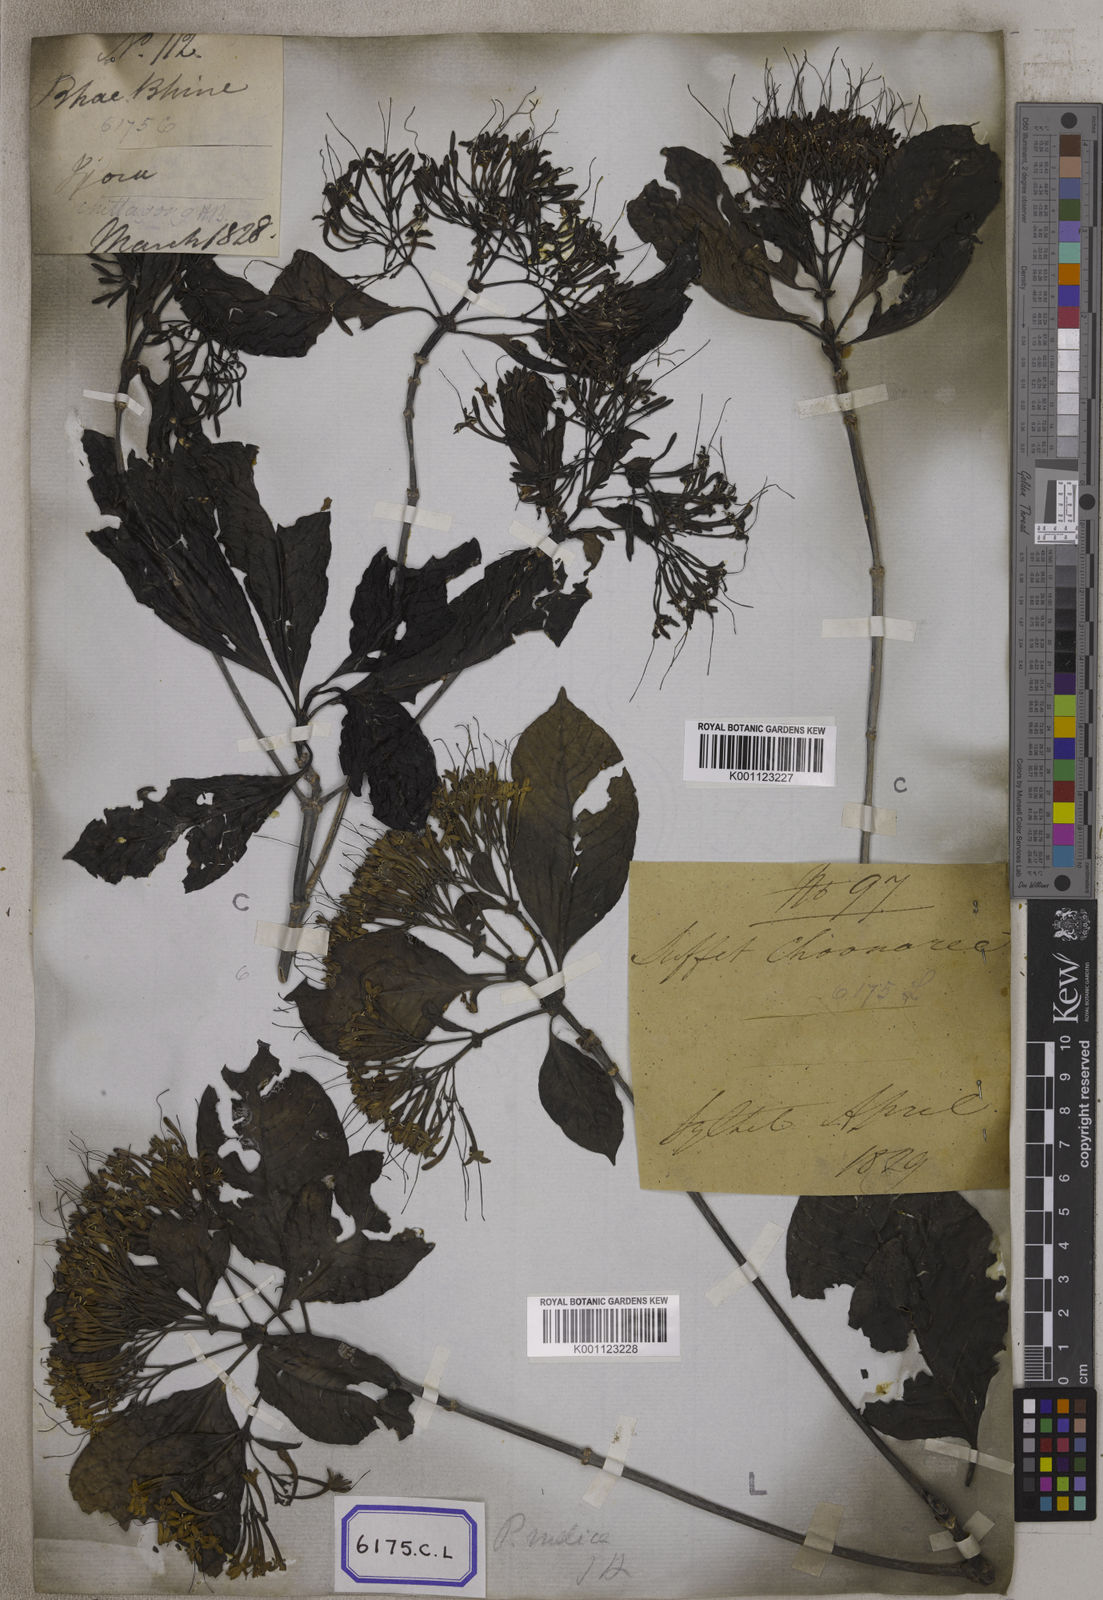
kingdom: Plantae
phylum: Tracheophyta
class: Magnoliopsida
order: Gentianales
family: Rubiaceae
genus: Pavetta
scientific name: Pavetta indica
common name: Indian pavetta
